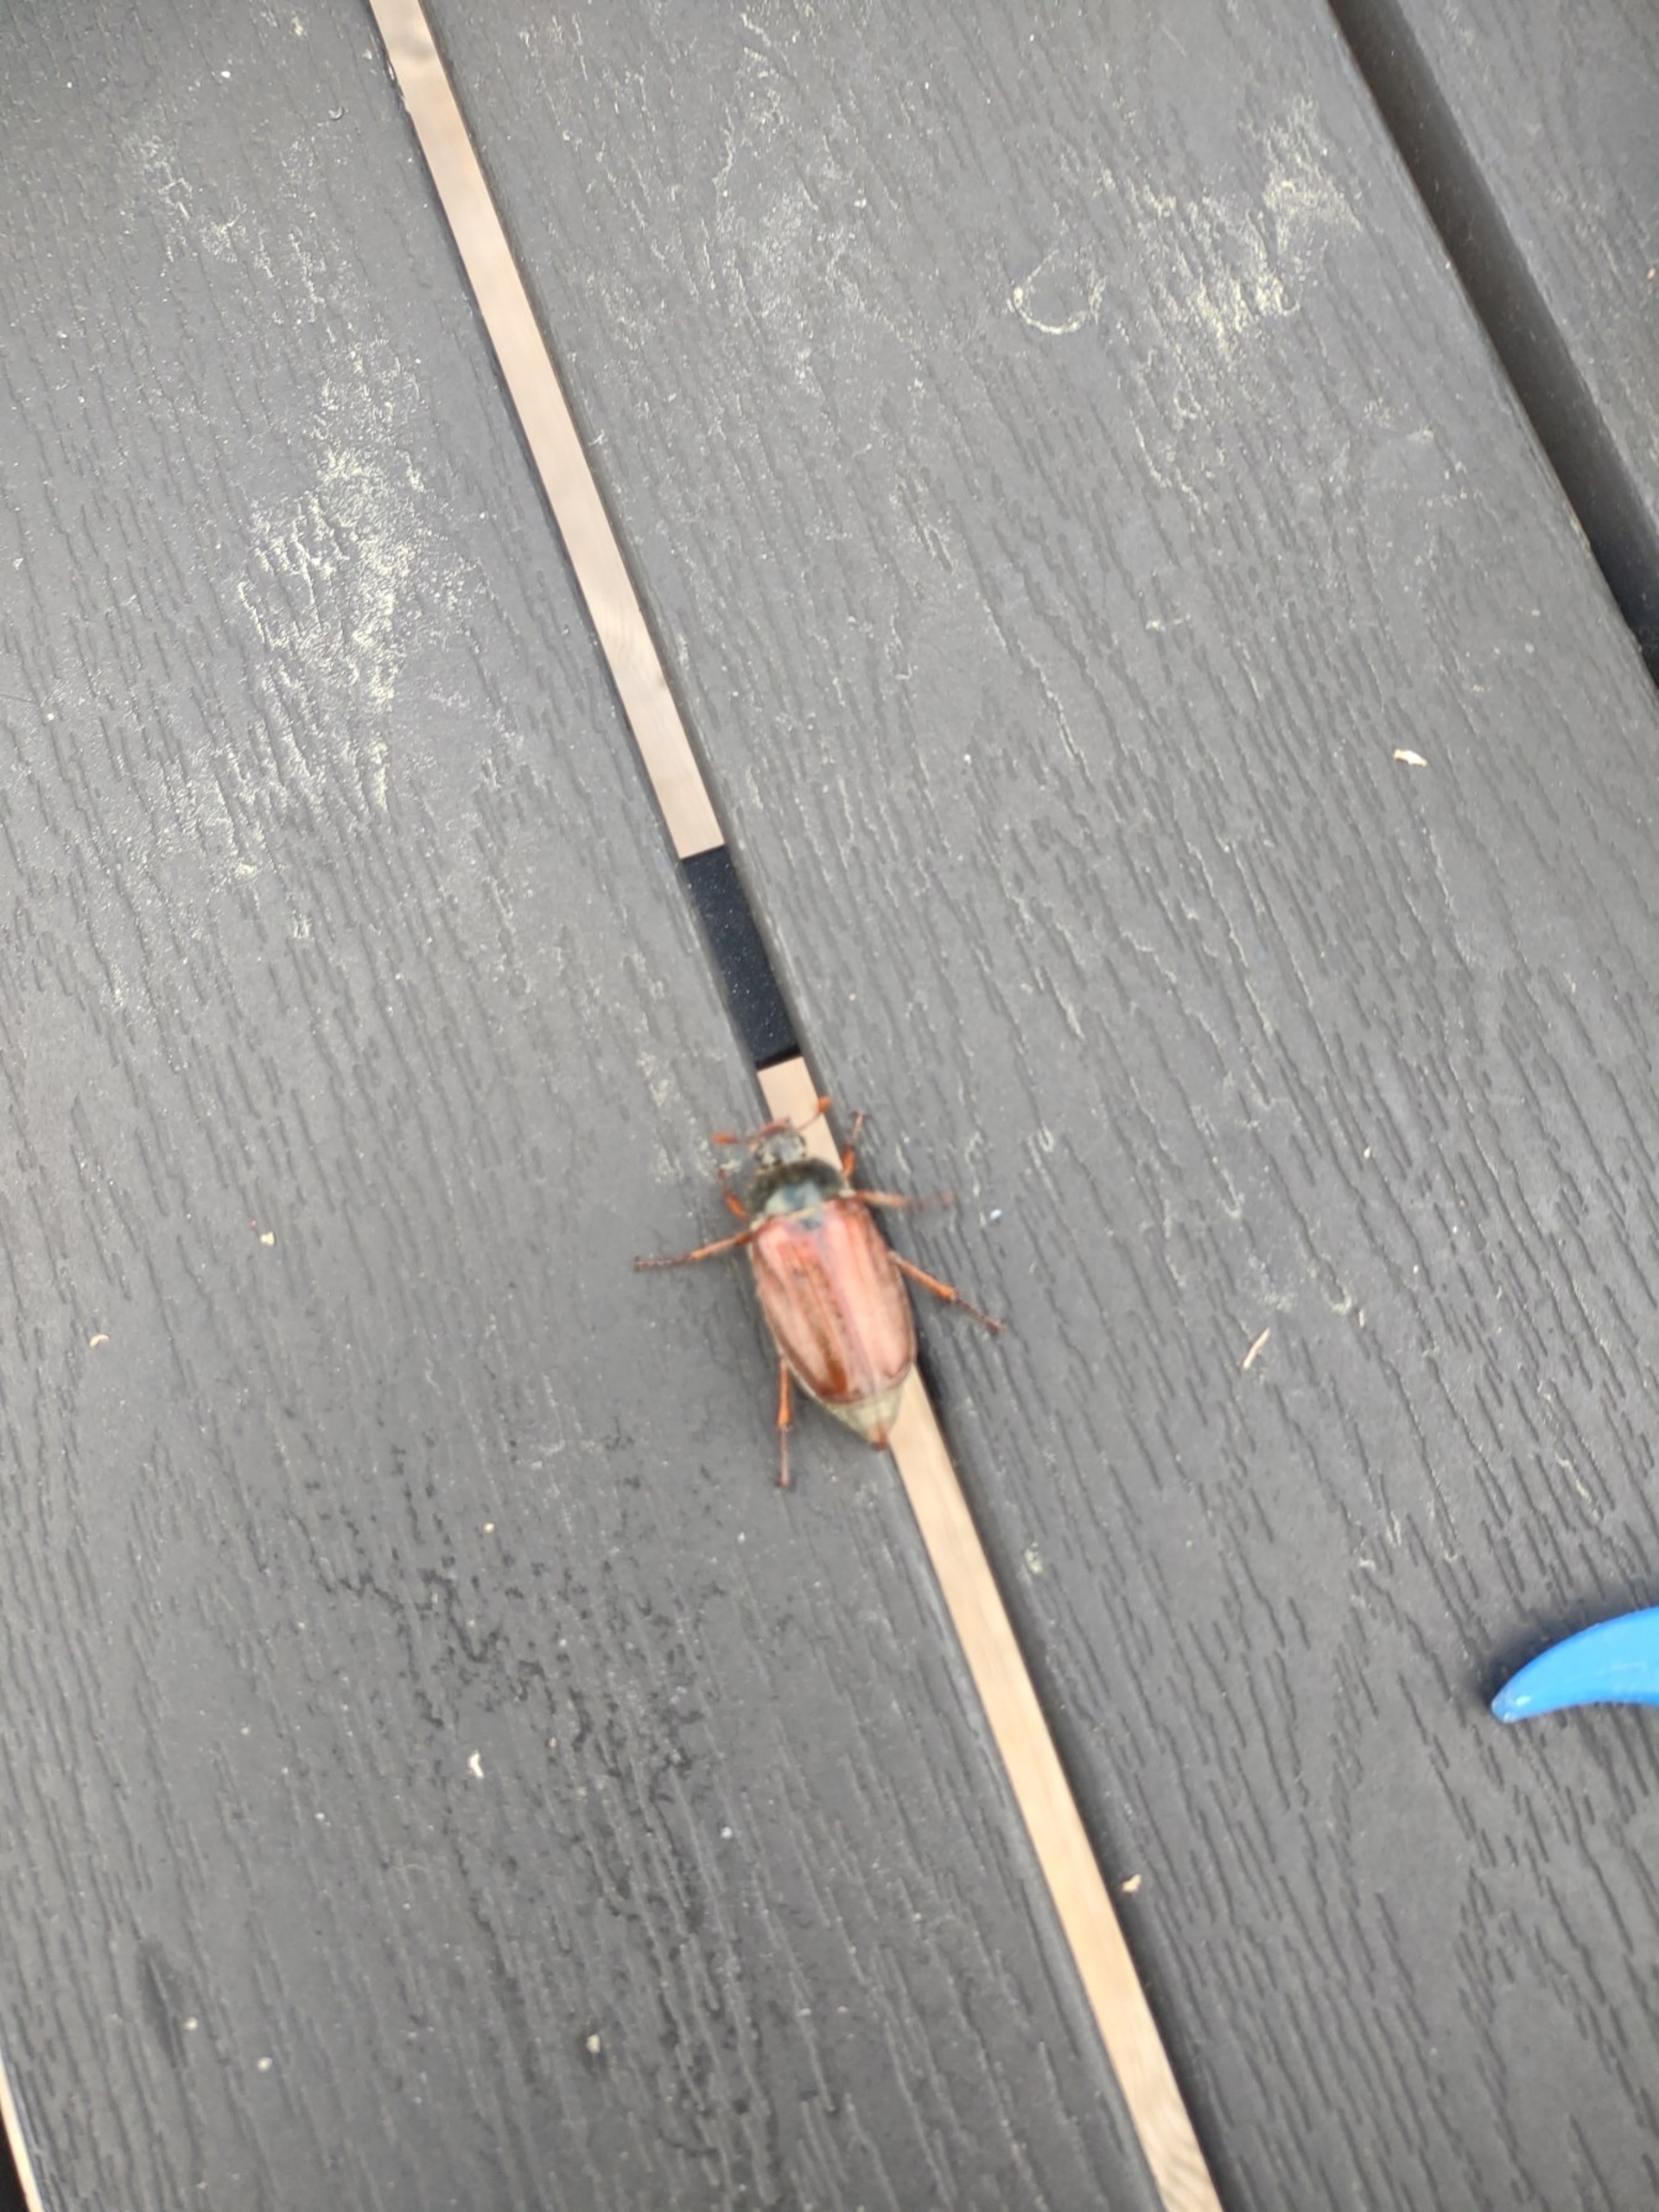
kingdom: Animalia
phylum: Arthropoda
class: Insecta
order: Coleoptera
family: Scarabaeidae
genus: Melolontha
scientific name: Melolontha melolontha
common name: Almindelig oldenborre
